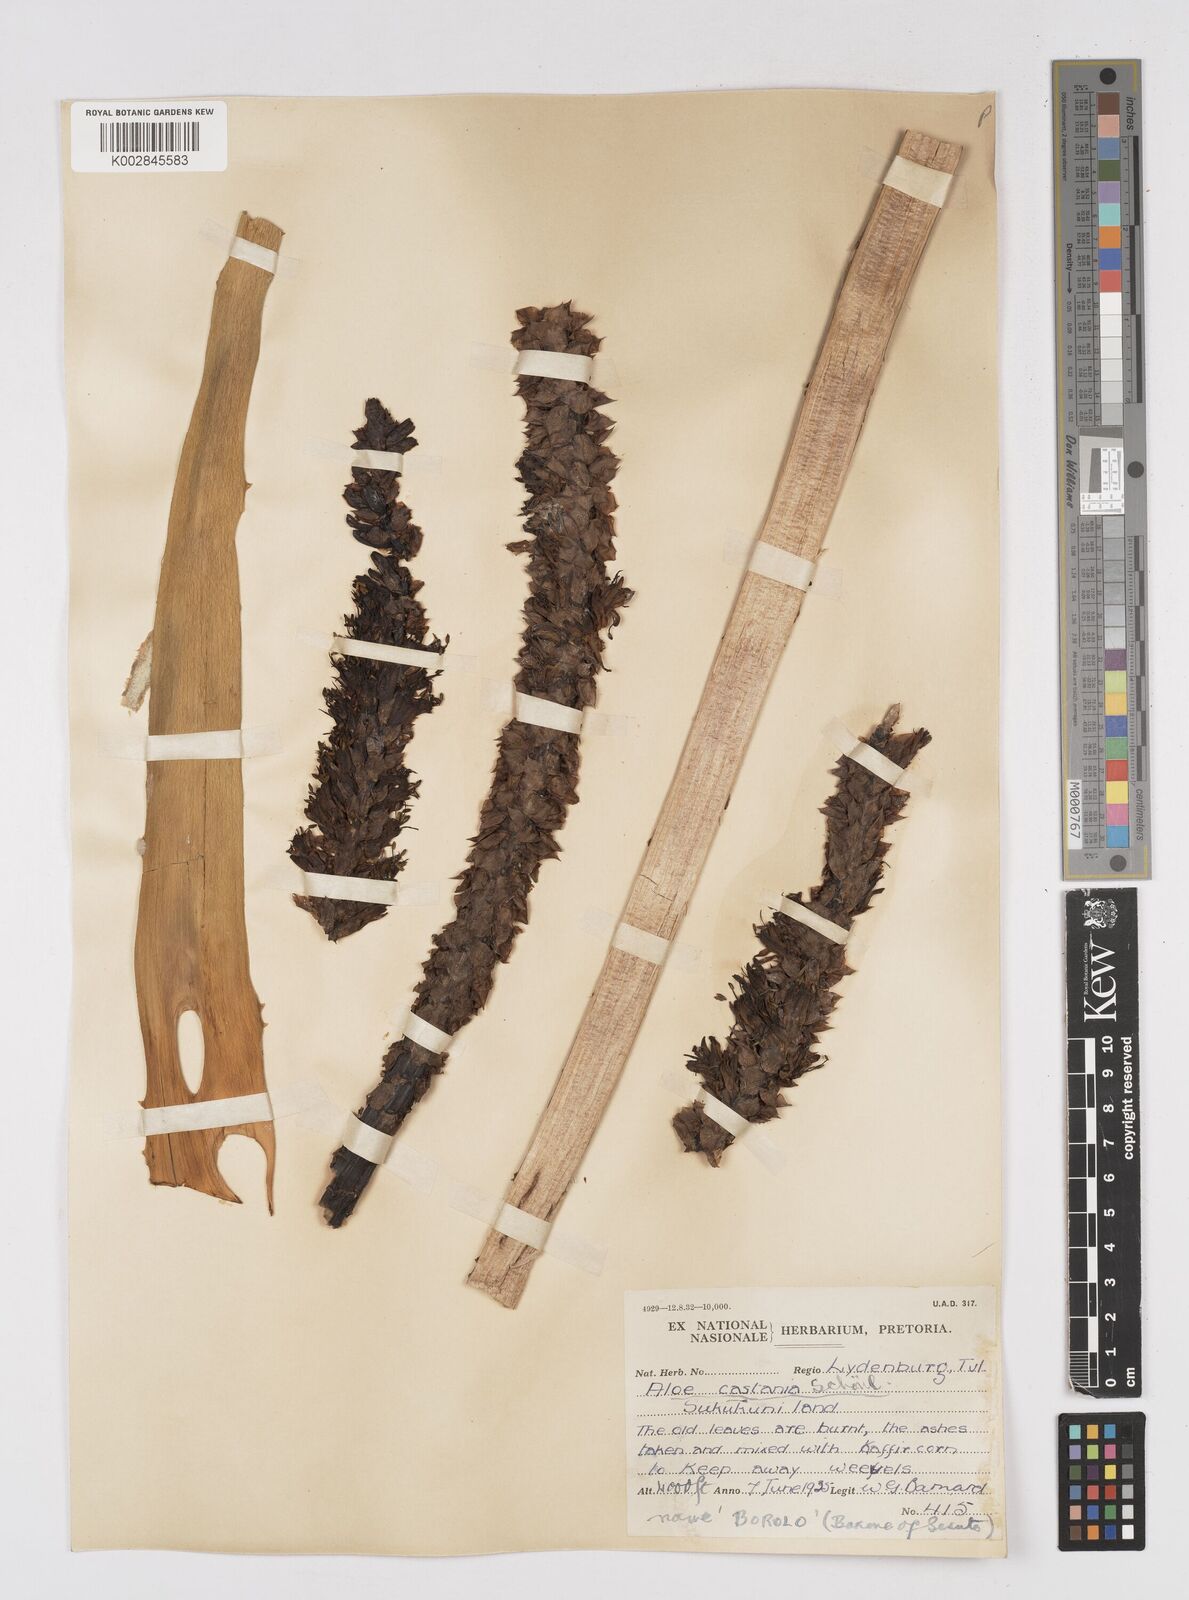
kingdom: Plantae
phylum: Tracheophyta
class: Liliopsida
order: Asparagales
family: Asphodelaceae
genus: Aloe
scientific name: Aloe castanea
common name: Cat's-tail aloe
